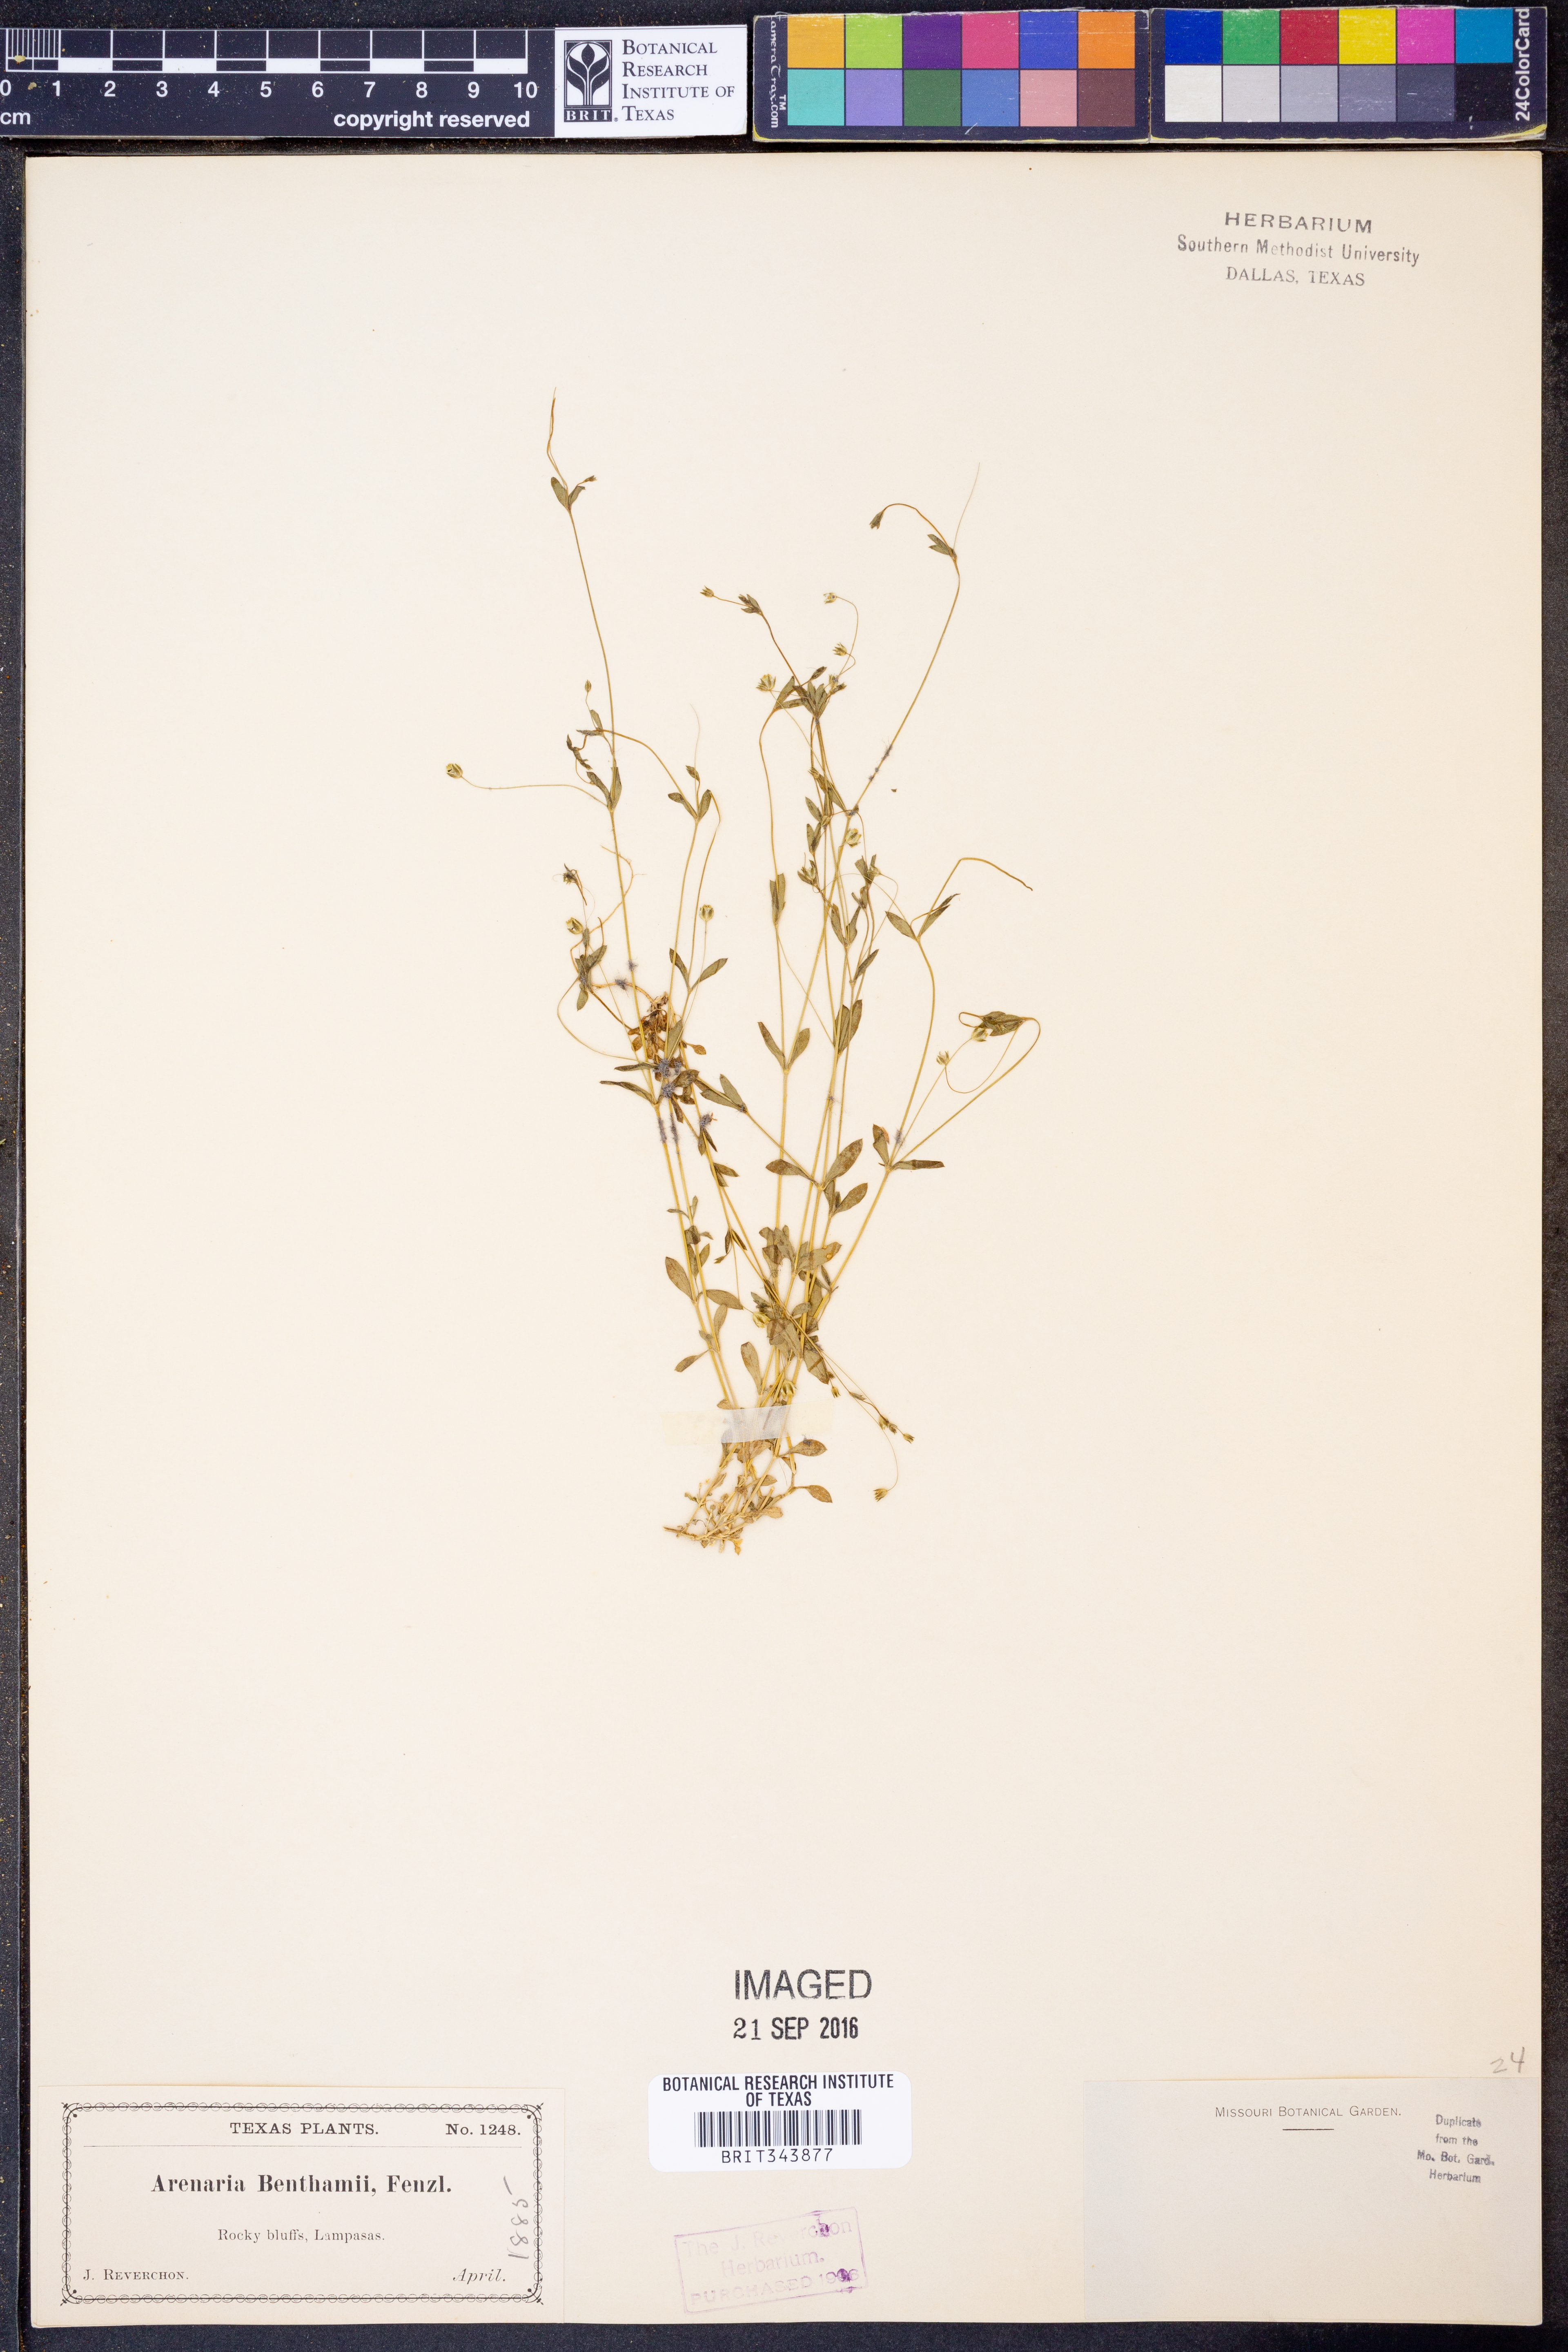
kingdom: Plantae
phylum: Tracheophyta
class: Magnoliopsida
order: Caryophyllales
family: Caryophyllaceae
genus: Arenaria
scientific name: Arenaria benthamii
